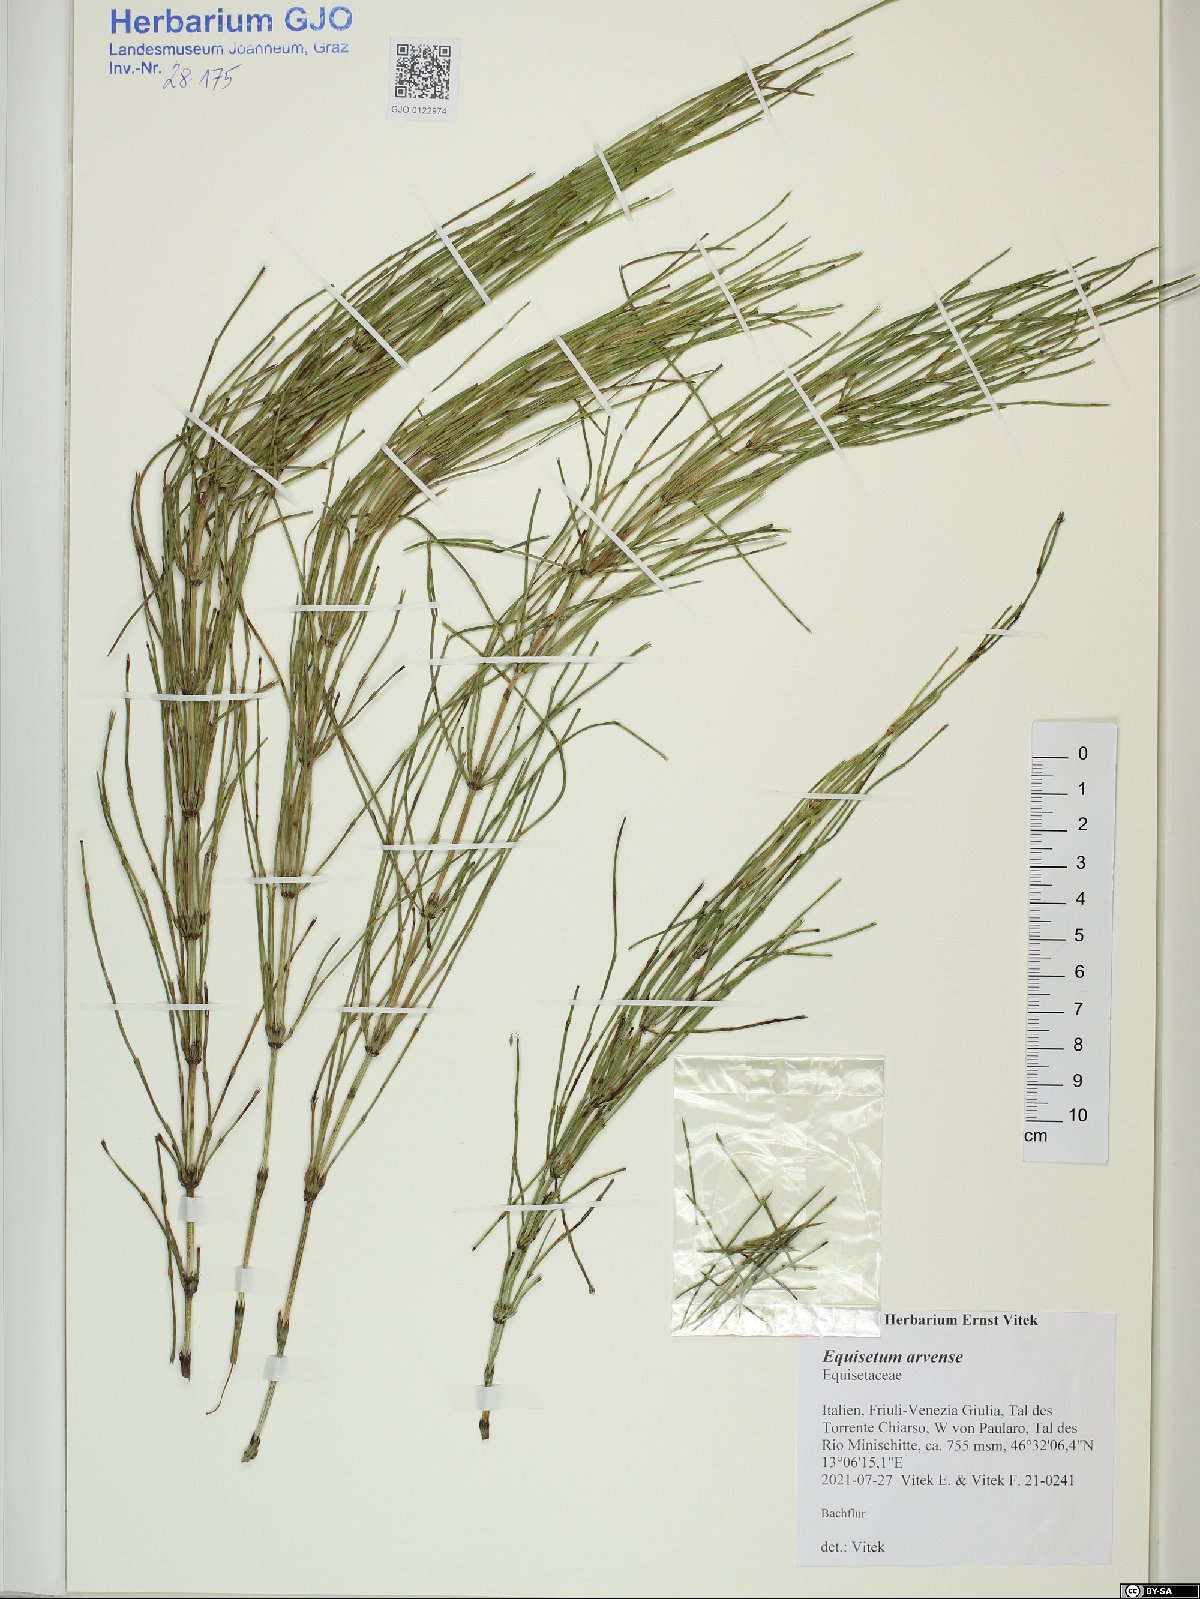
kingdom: Plantae
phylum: Tracheophyta
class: Polypodiopsida
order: Equisetales
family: Equisetaceae
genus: Equisetum
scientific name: Equisetum arvense
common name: Field horsetail
